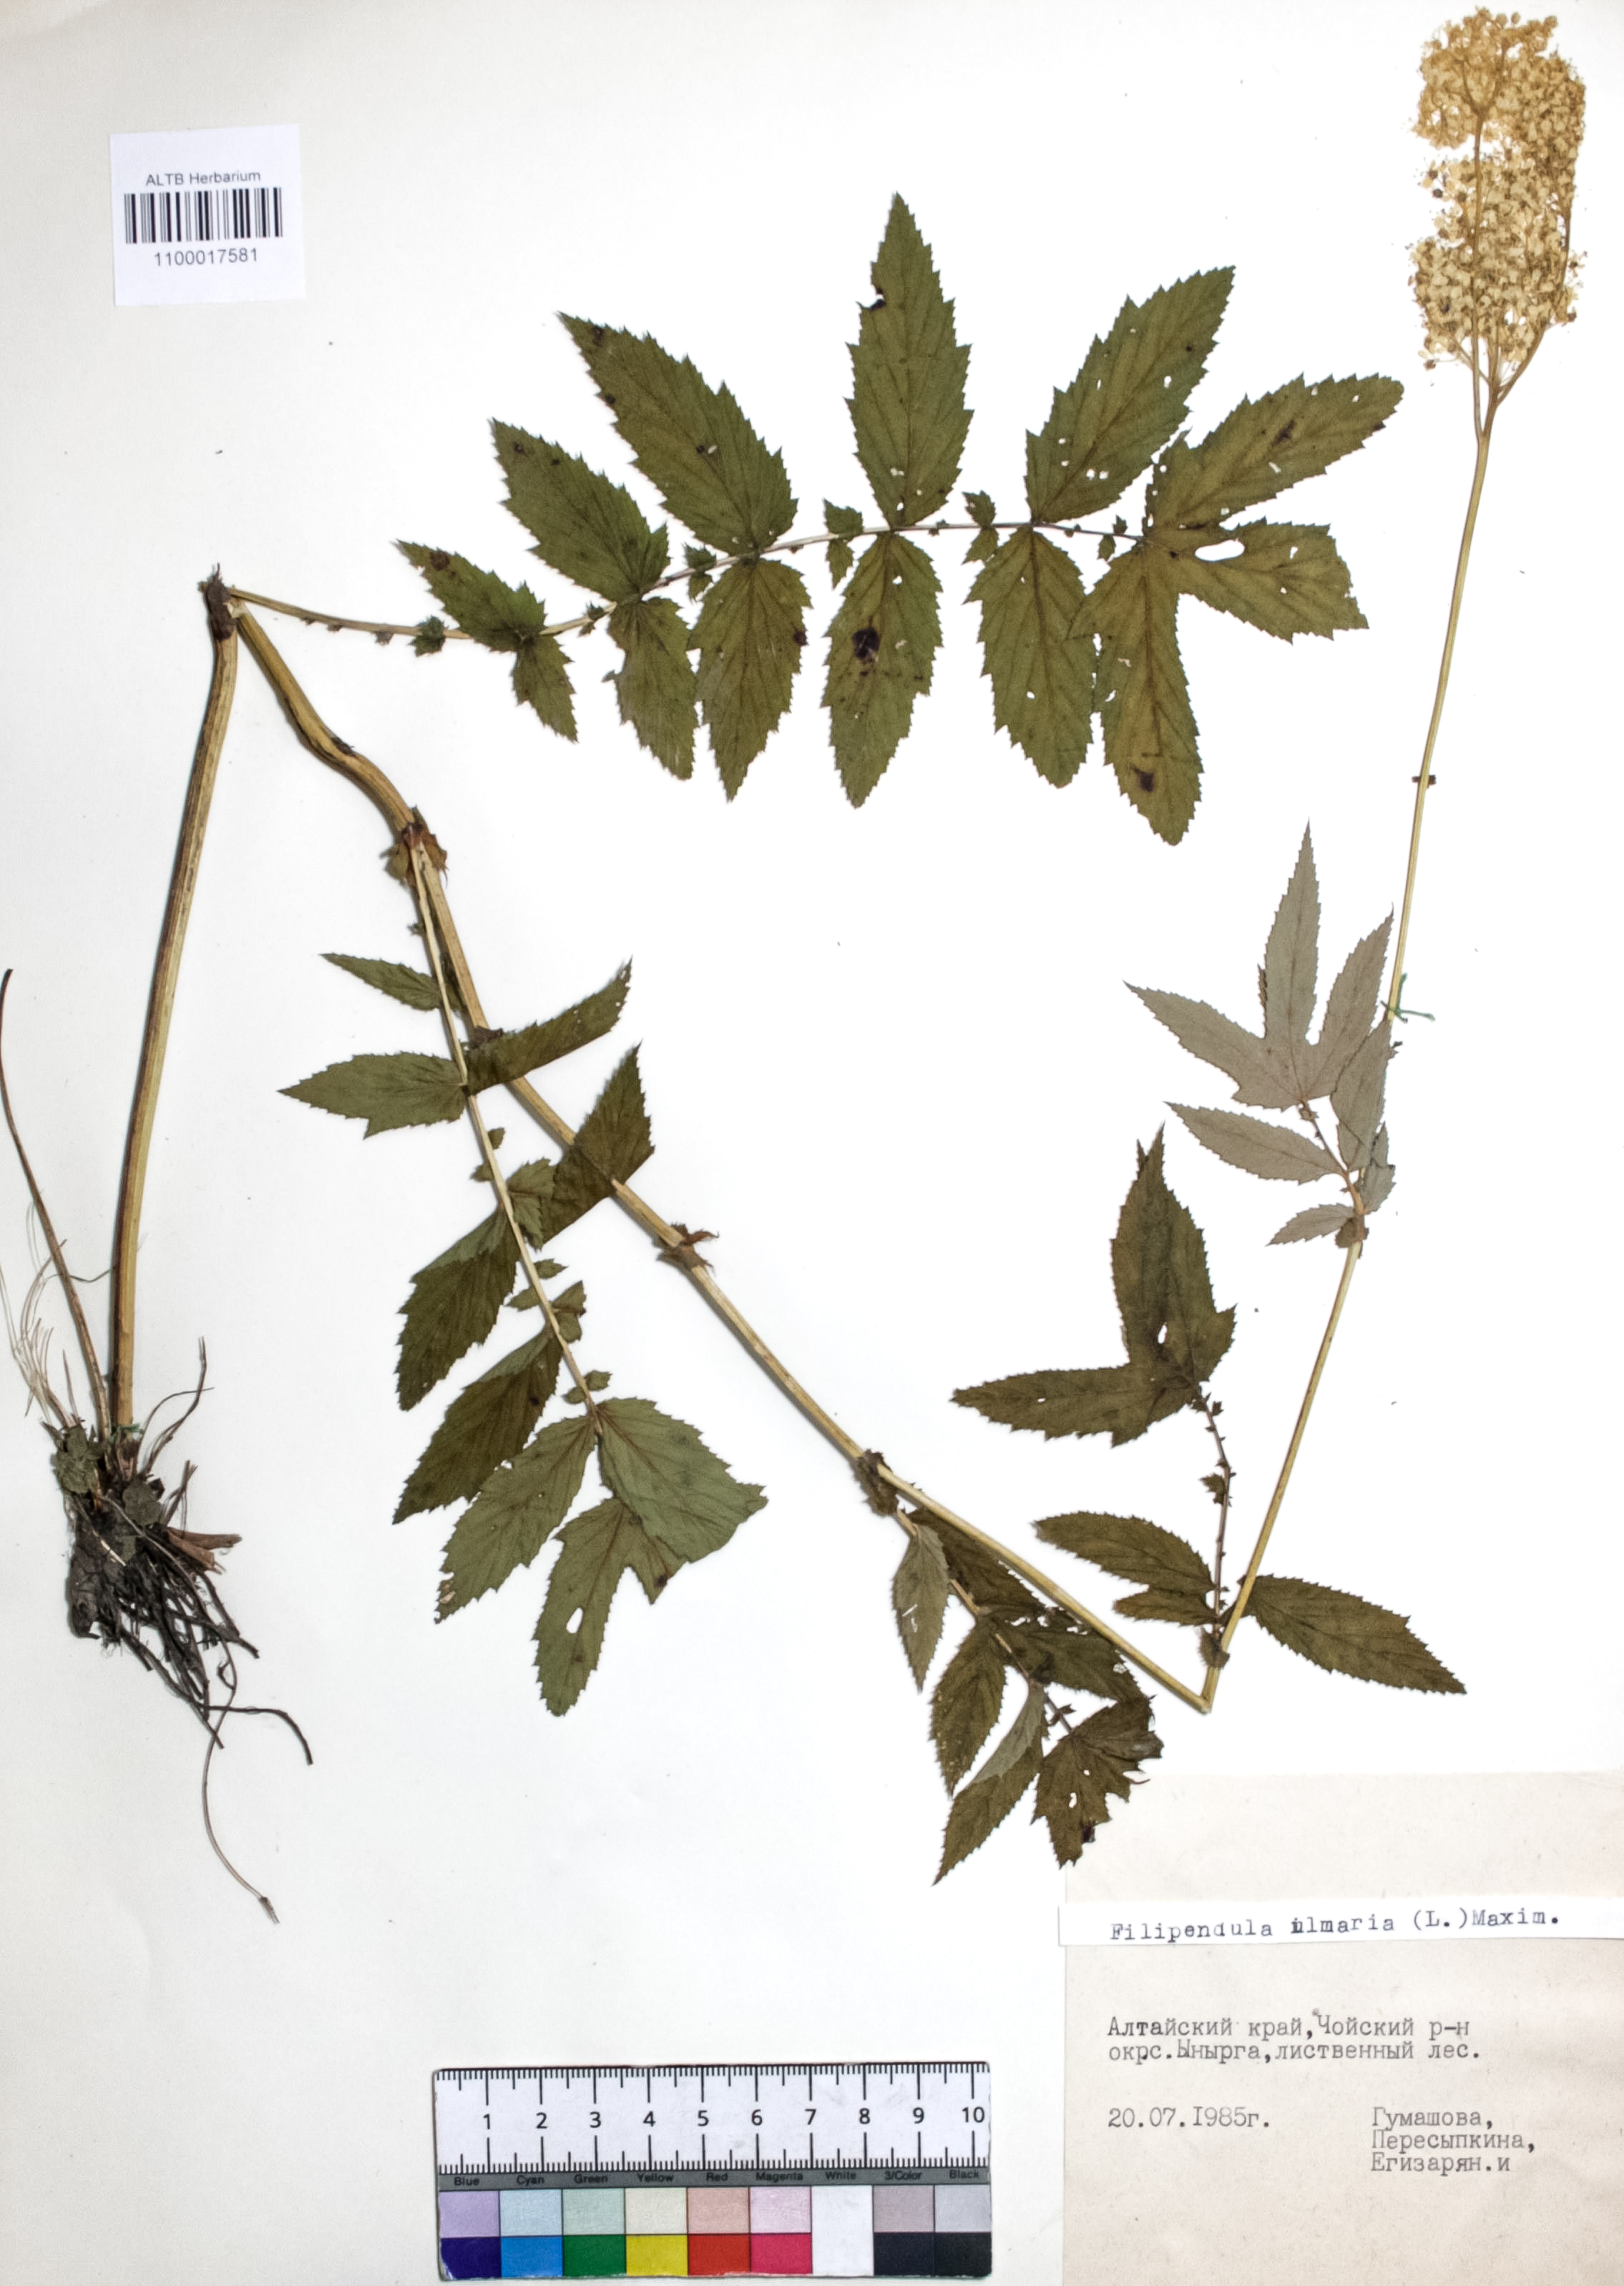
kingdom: Plantae
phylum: Tracheophyta
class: Magnoliopsida
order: Rosales
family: Rosaceae
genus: Filipendula
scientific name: Filipendula ulmaria
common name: Meadowsweet
